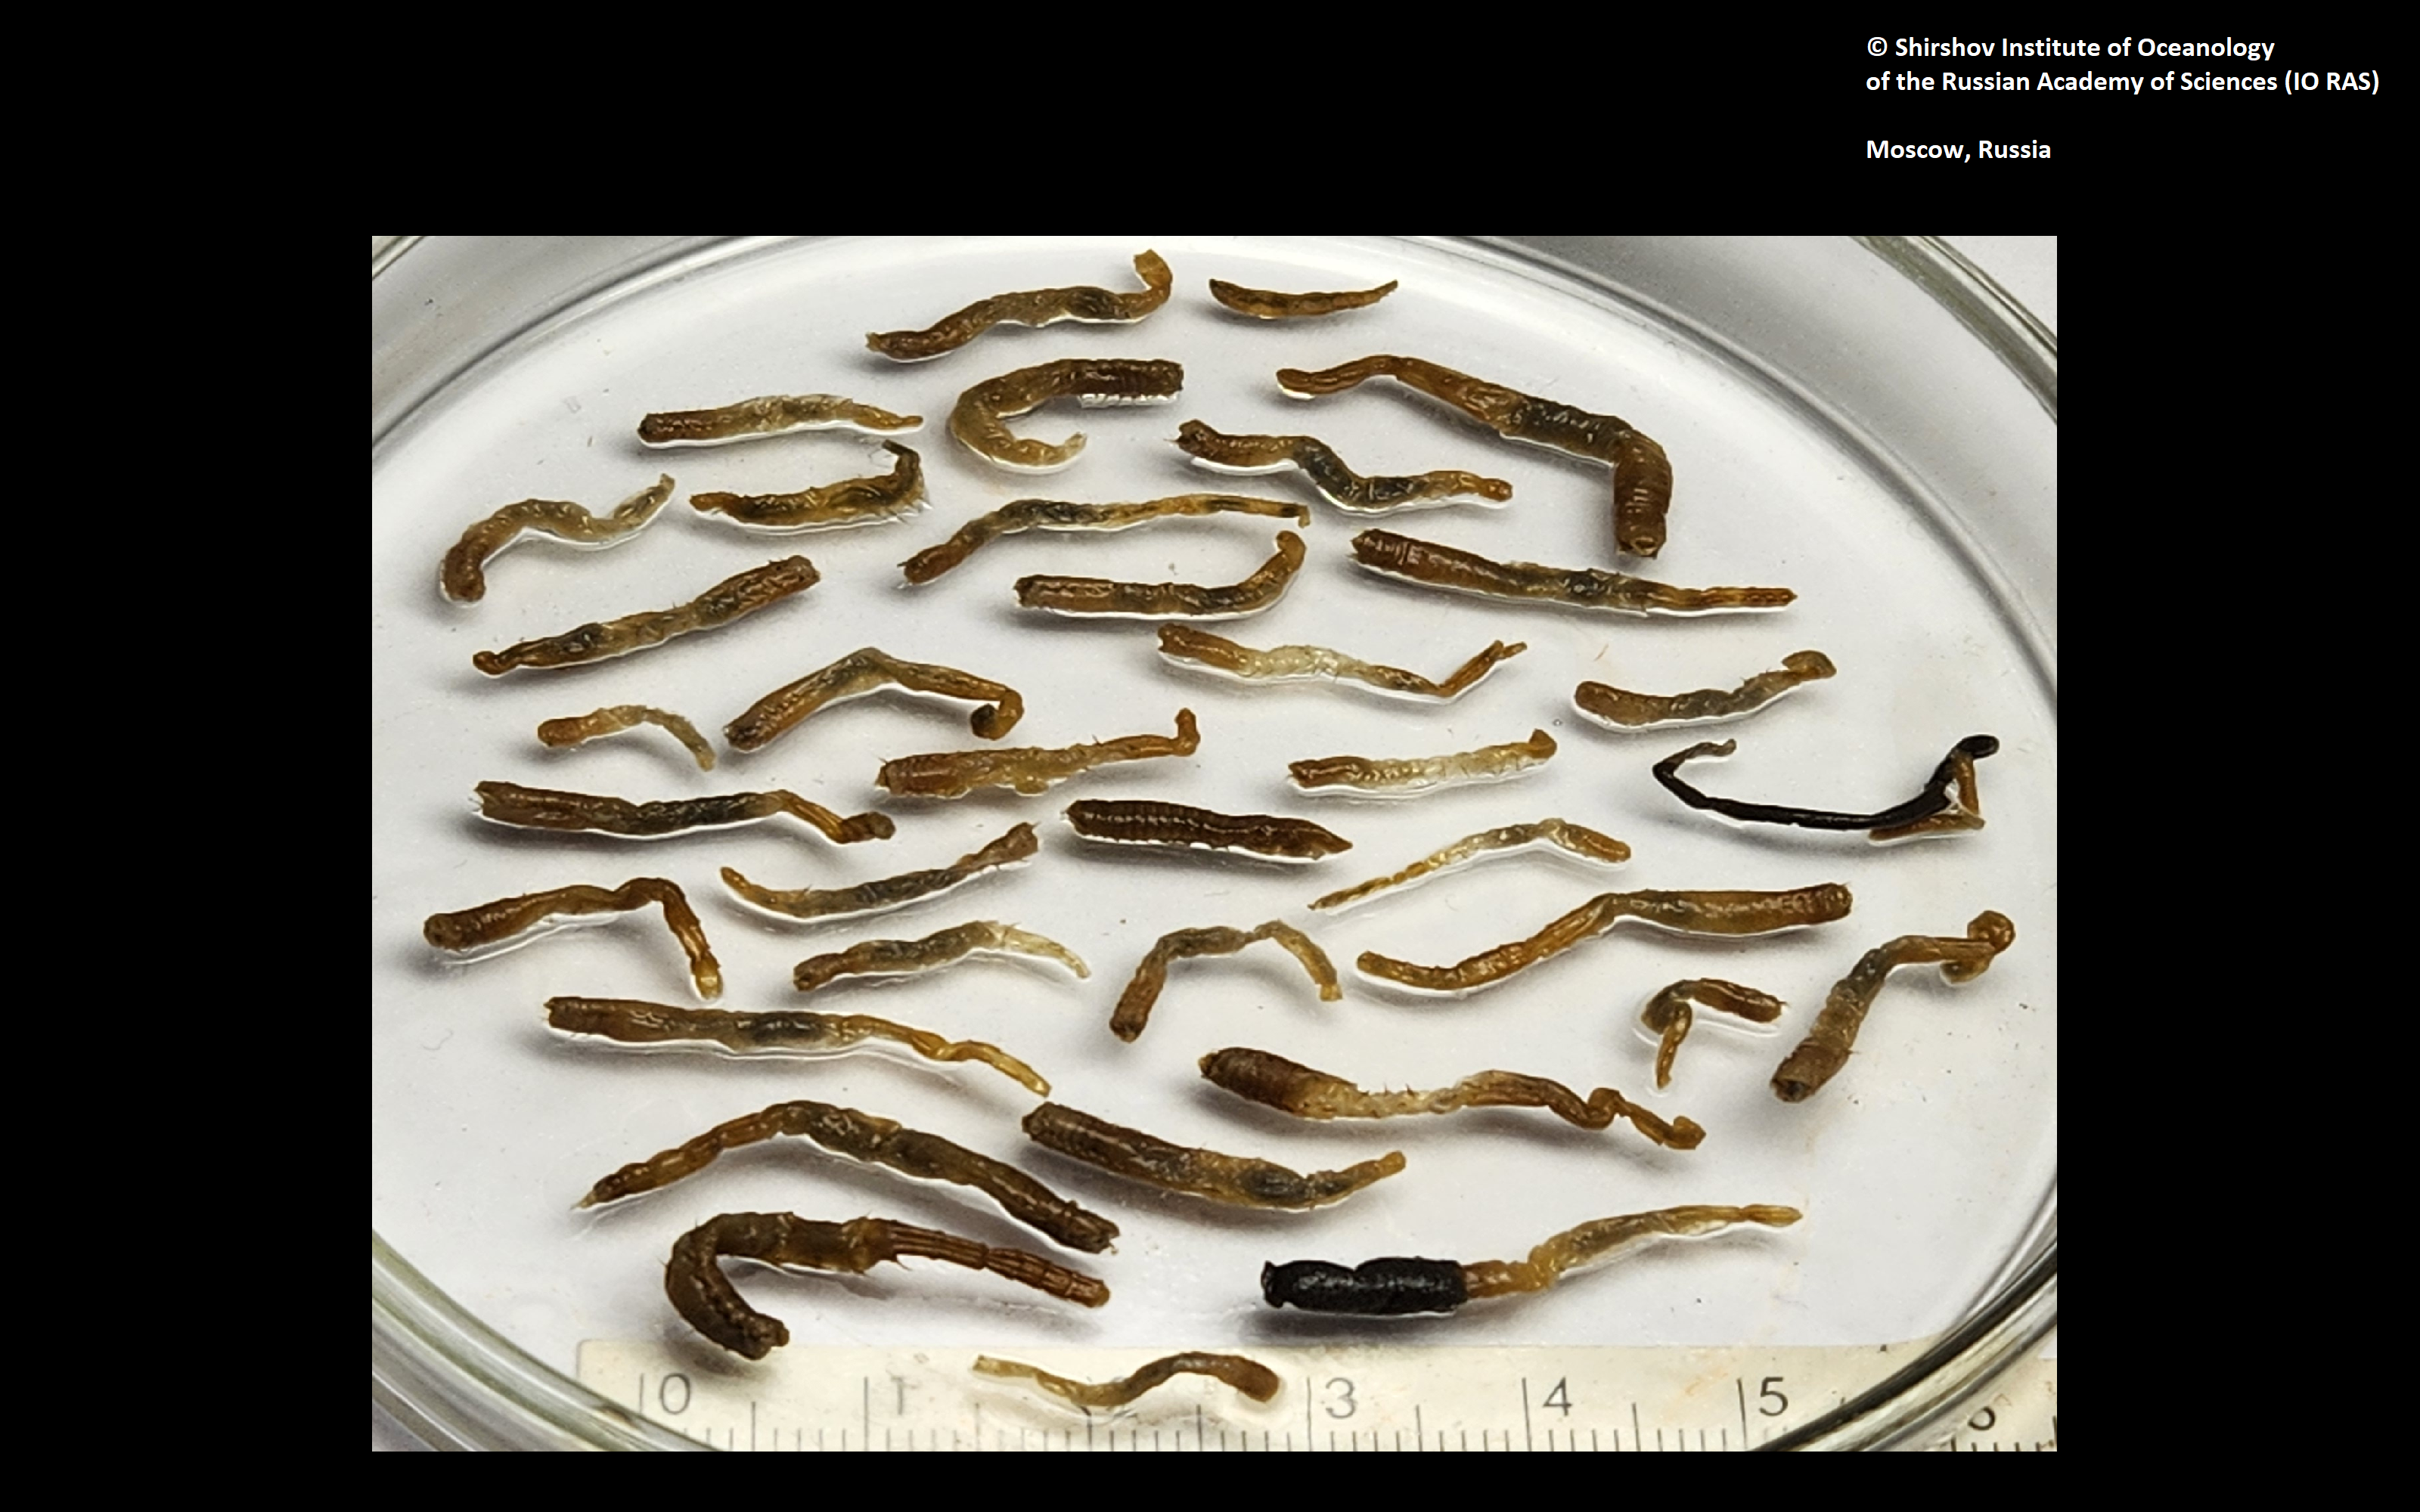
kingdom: Animalia
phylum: Annelida
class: Polychaeta
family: Ampharetidae
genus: Anobothrus
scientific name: Anobothrus mironovi
